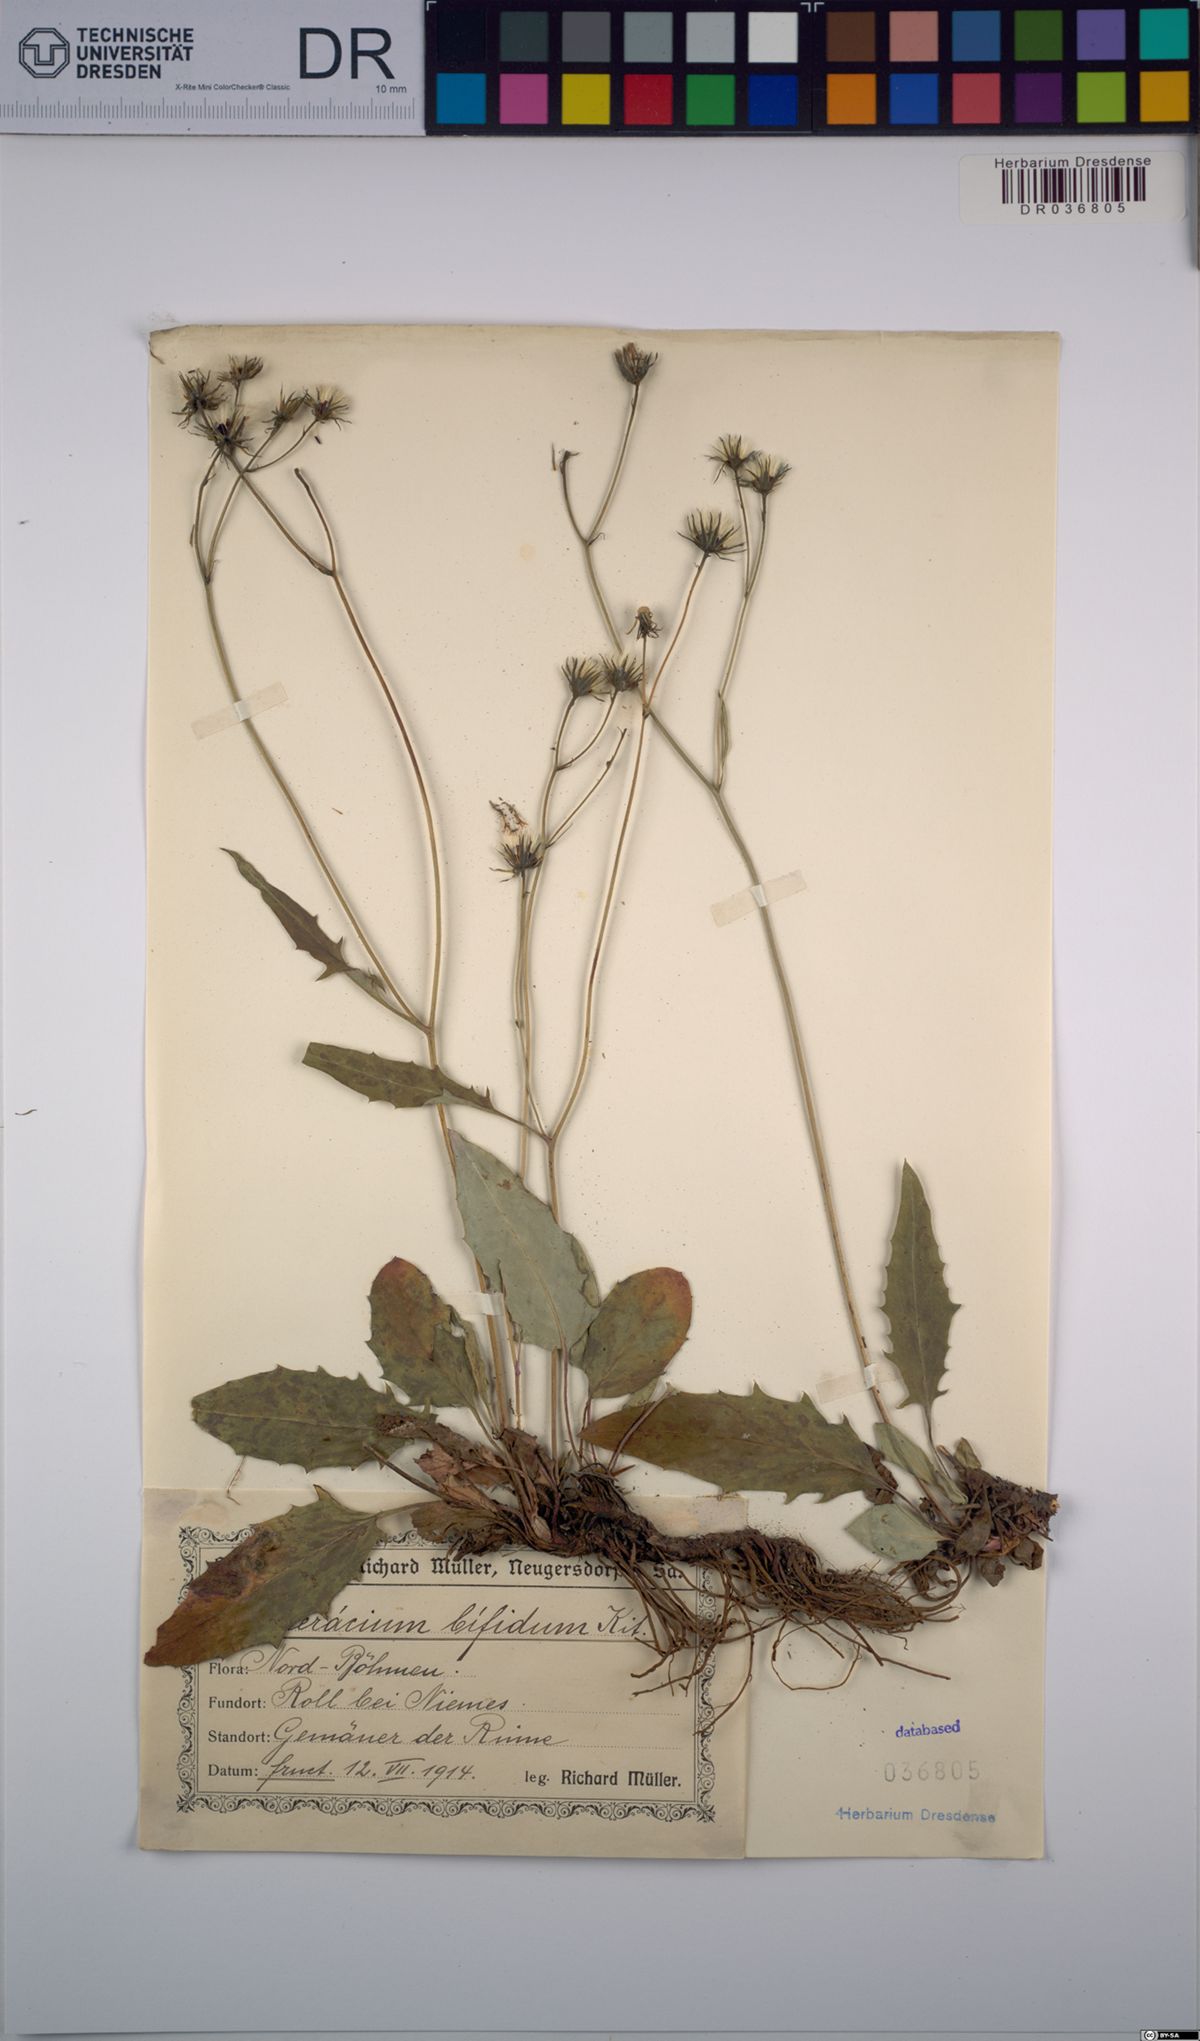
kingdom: Plantae
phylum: Tracheophyta
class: Magnoliopsida
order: Asterales
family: Asteraceae
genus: Hieracium
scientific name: Hieracium bifidum
